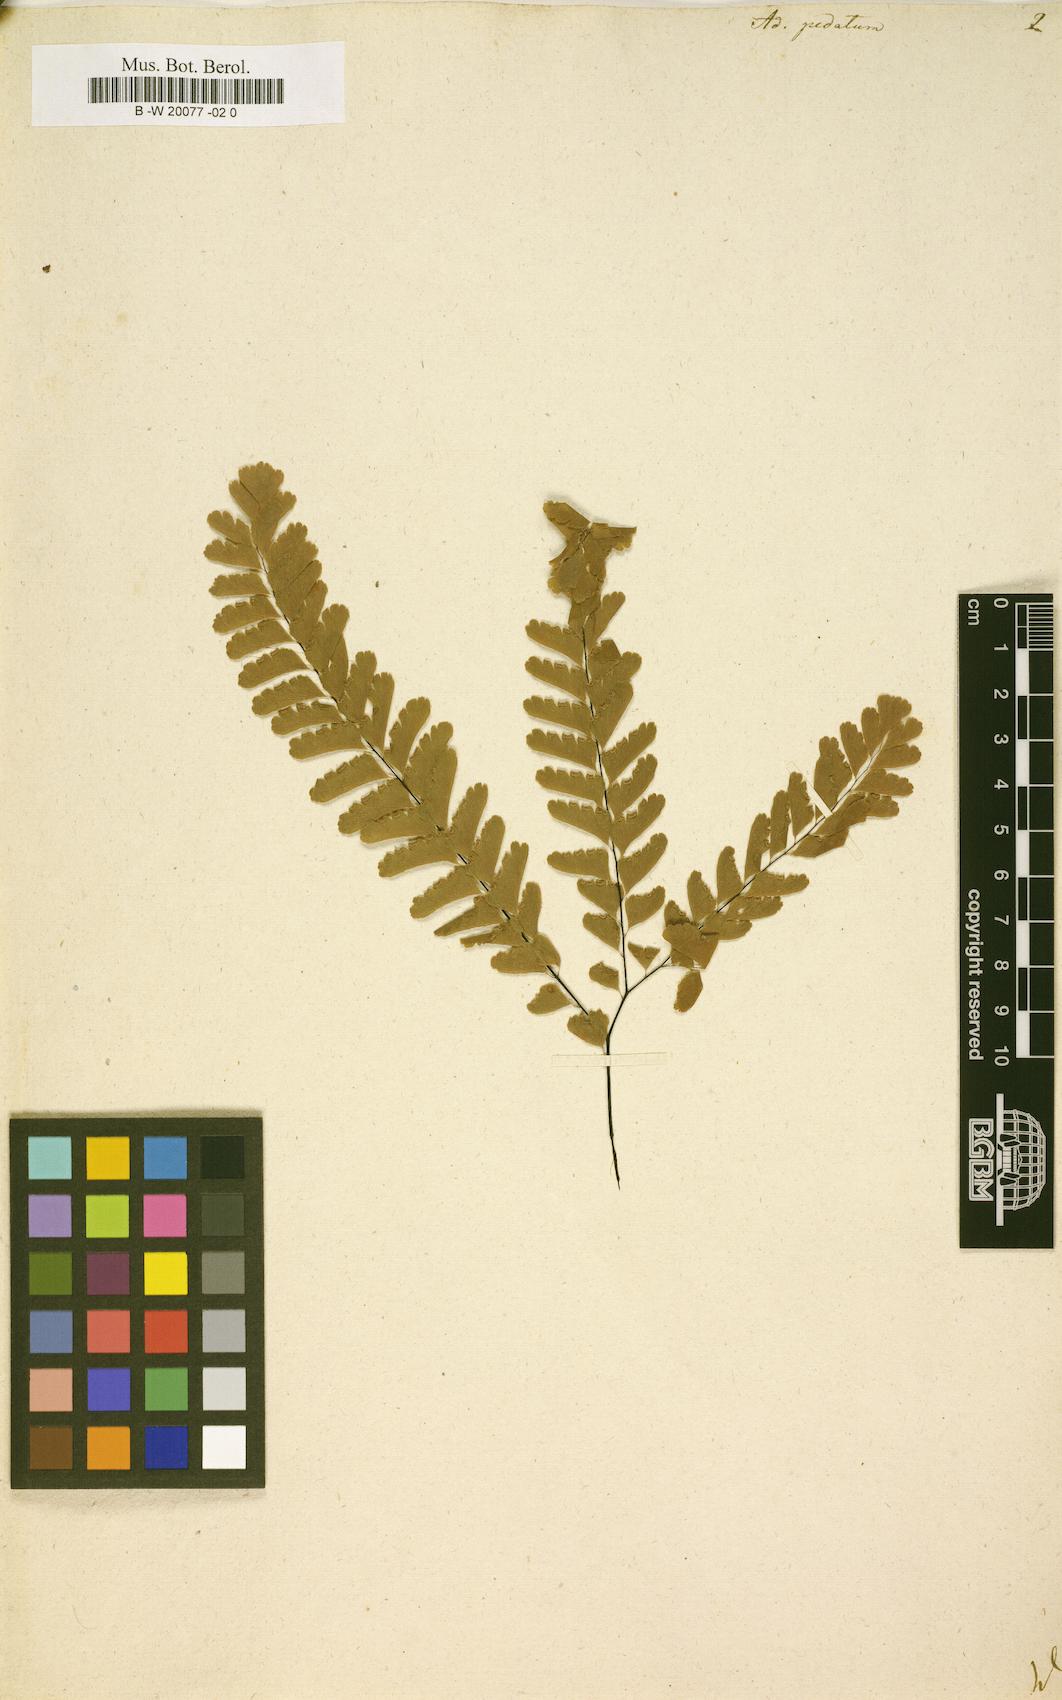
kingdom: Plantae
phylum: Tracheophyta
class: Polypodiopsida
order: Polypodiales
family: Pteridaceae
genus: Adiantum
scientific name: Adiantum pedatum
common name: Five-finger fern
